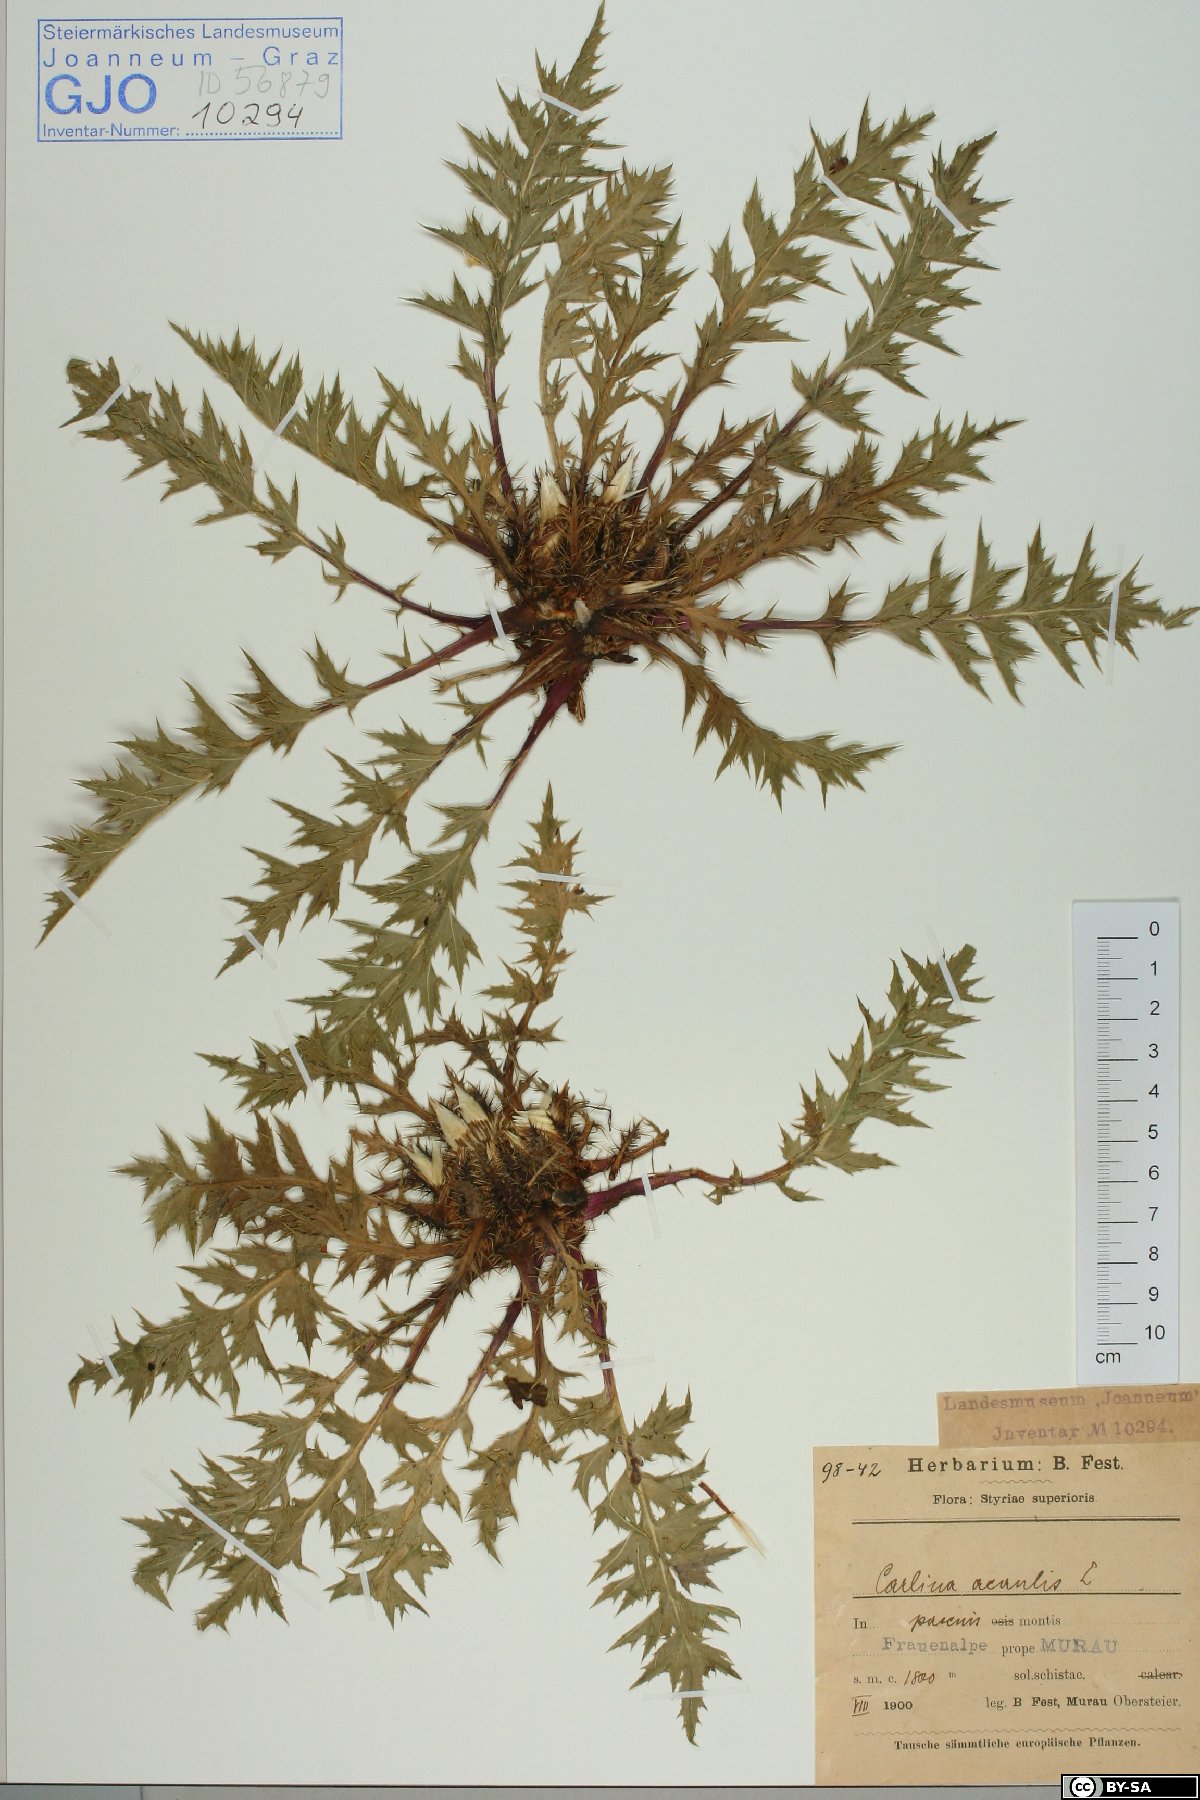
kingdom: Plantae
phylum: Tracheophyta
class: Magnoliopsida
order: Asterales
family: Asteraceae
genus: Carlina
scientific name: Carlina acaulis
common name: Stemless carline thistle
